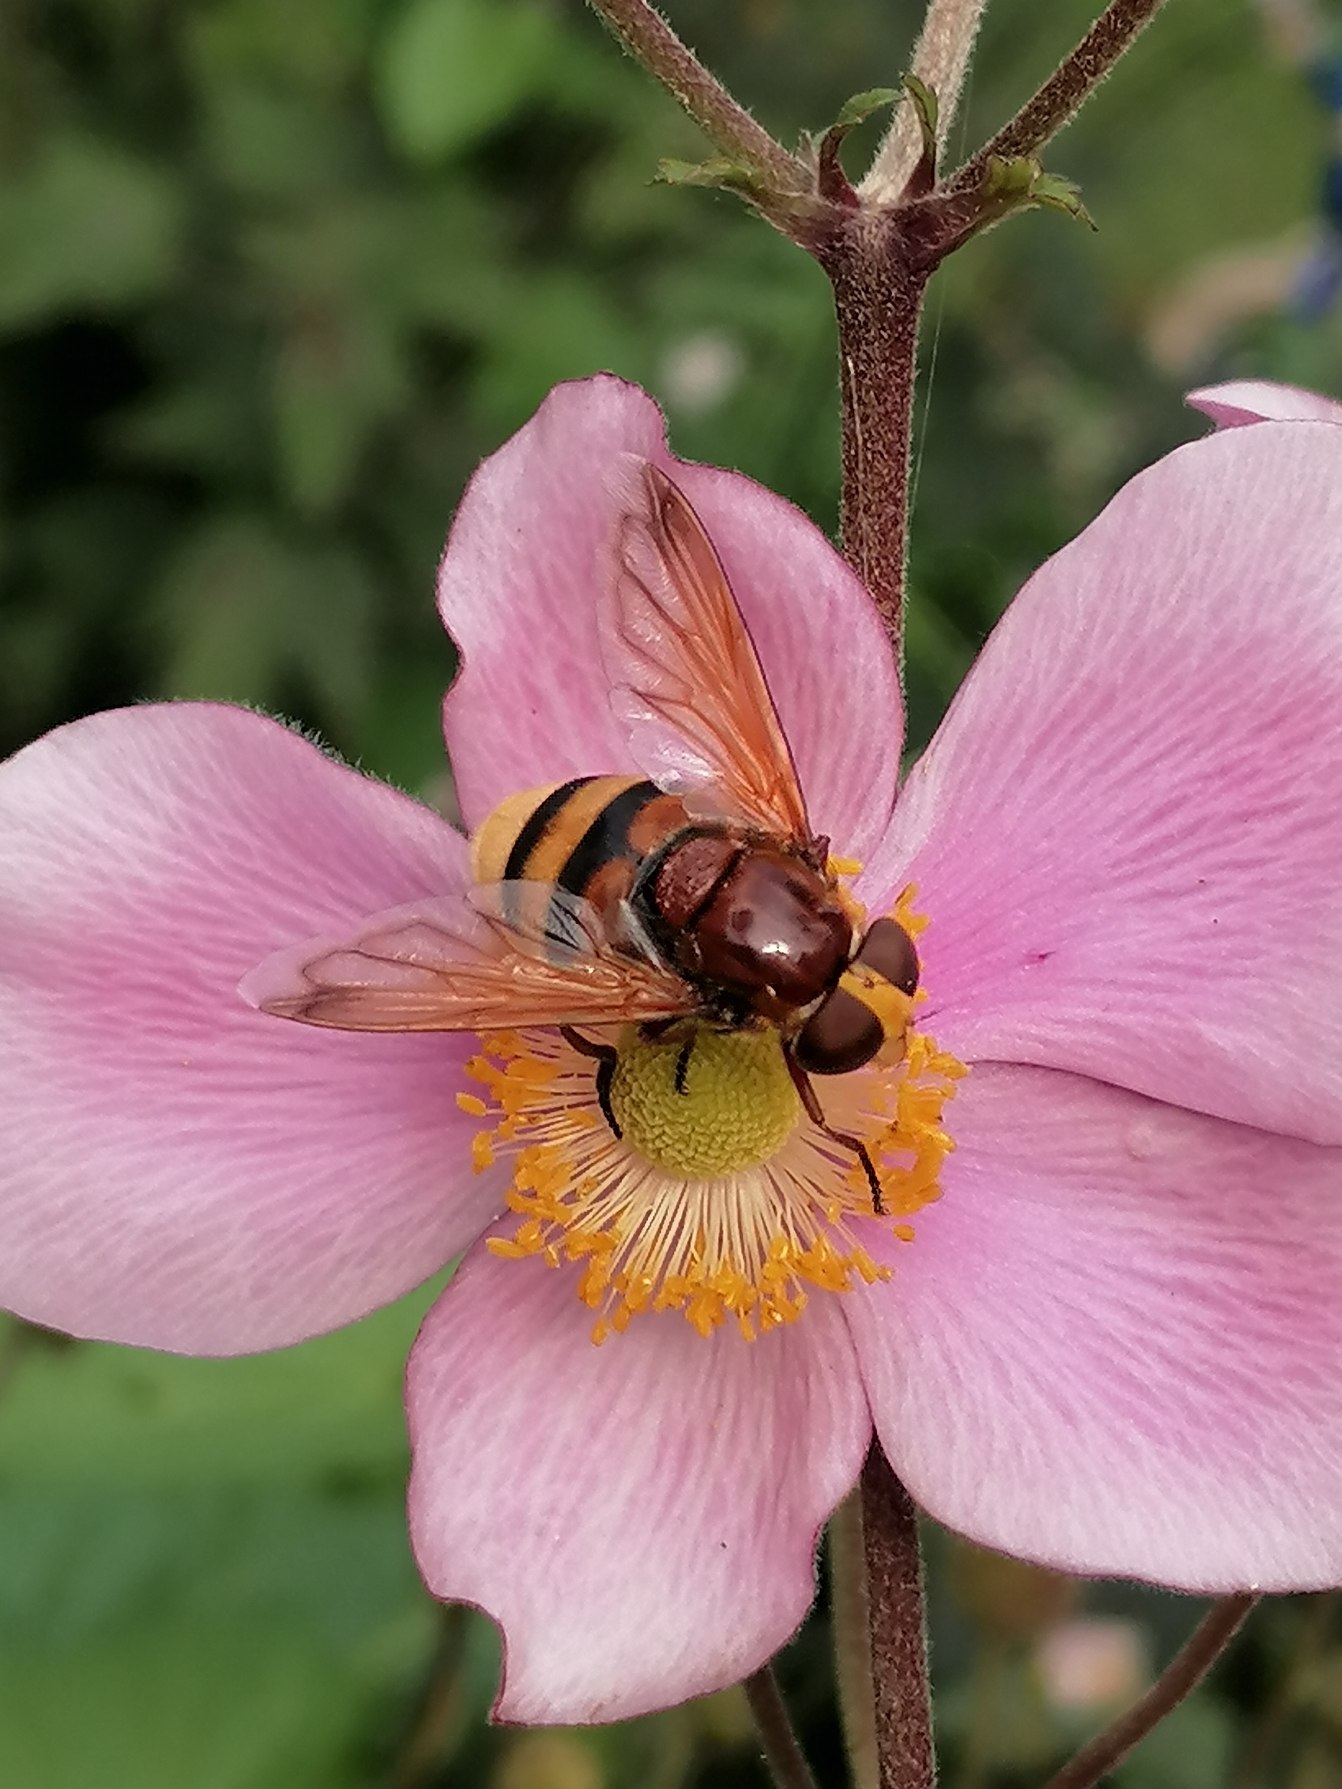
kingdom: Animalia
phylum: Arthropoda
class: Insecta
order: Diptera
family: Syrphidae
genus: Volucella
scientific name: Volucella zonaria
